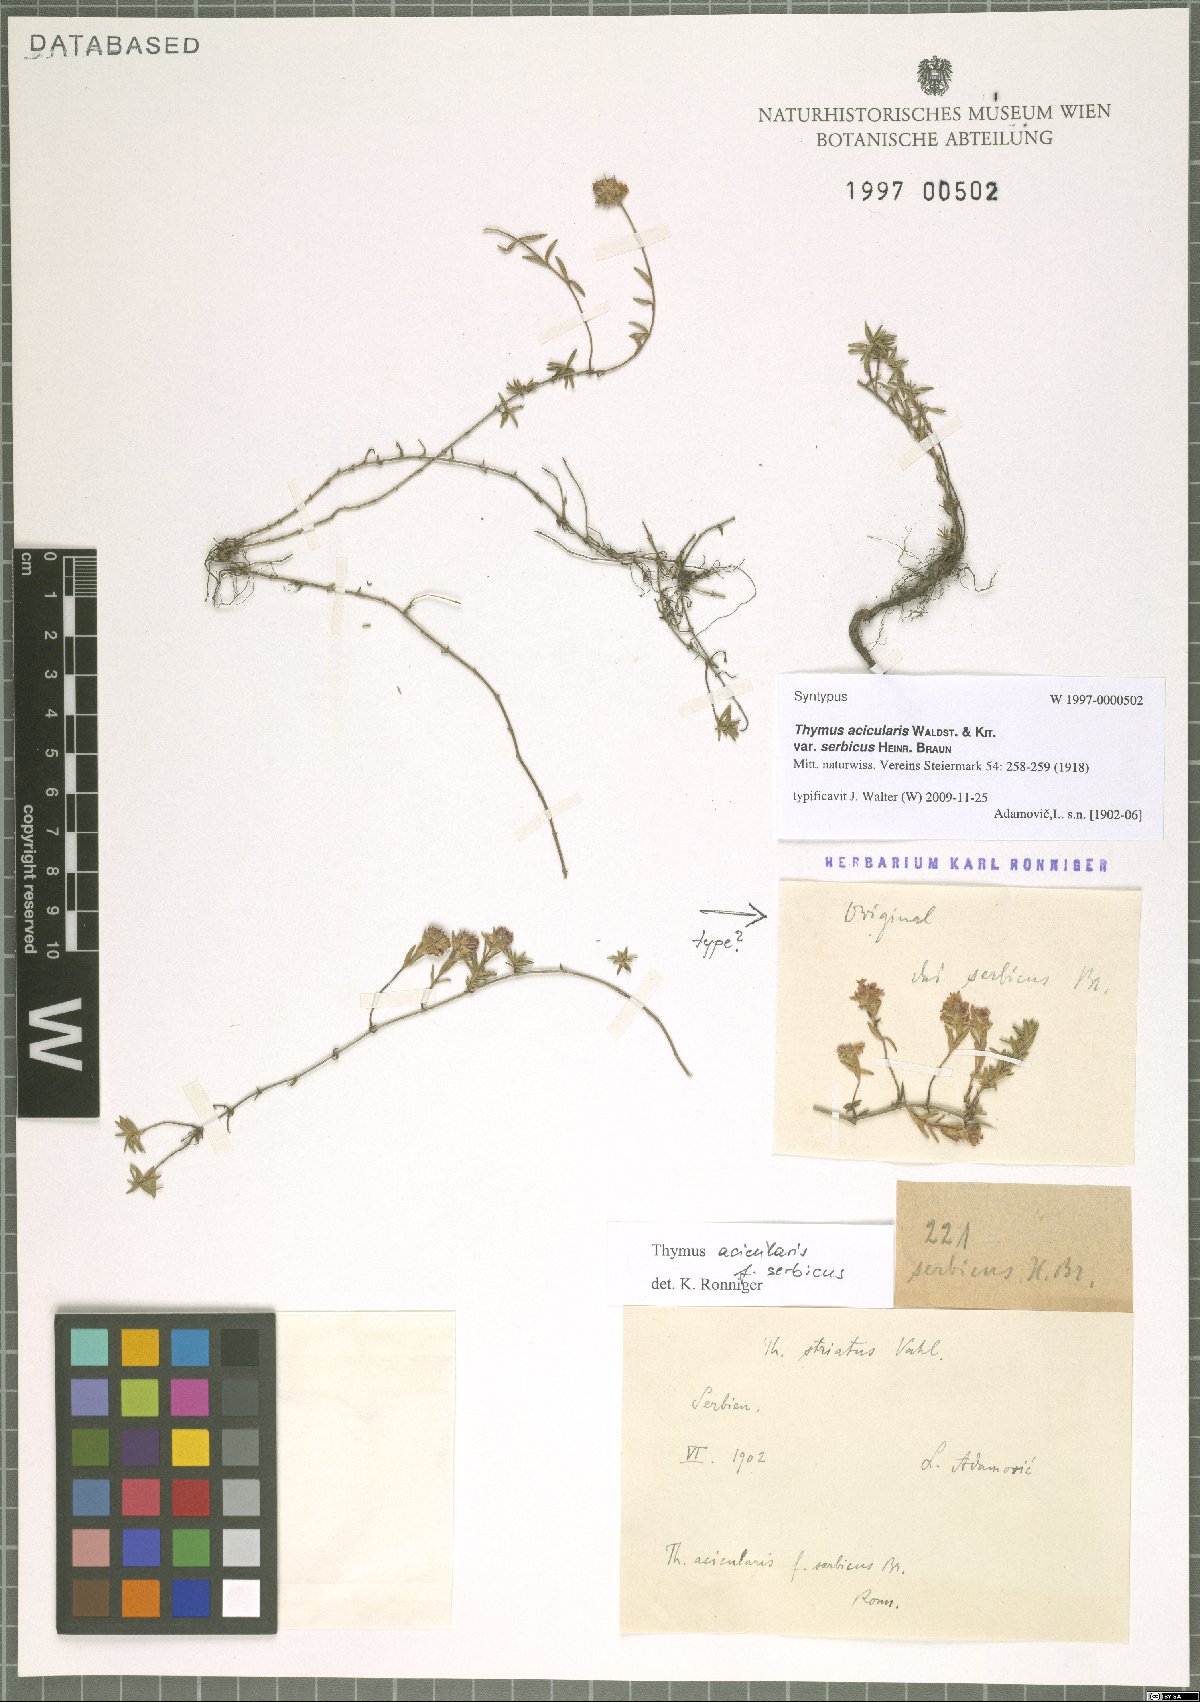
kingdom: Plantae
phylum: Tracheophyta
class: Magnoliopsida
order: Lamiales
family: Lamiaceae
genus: Thymus
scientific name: Thymus
